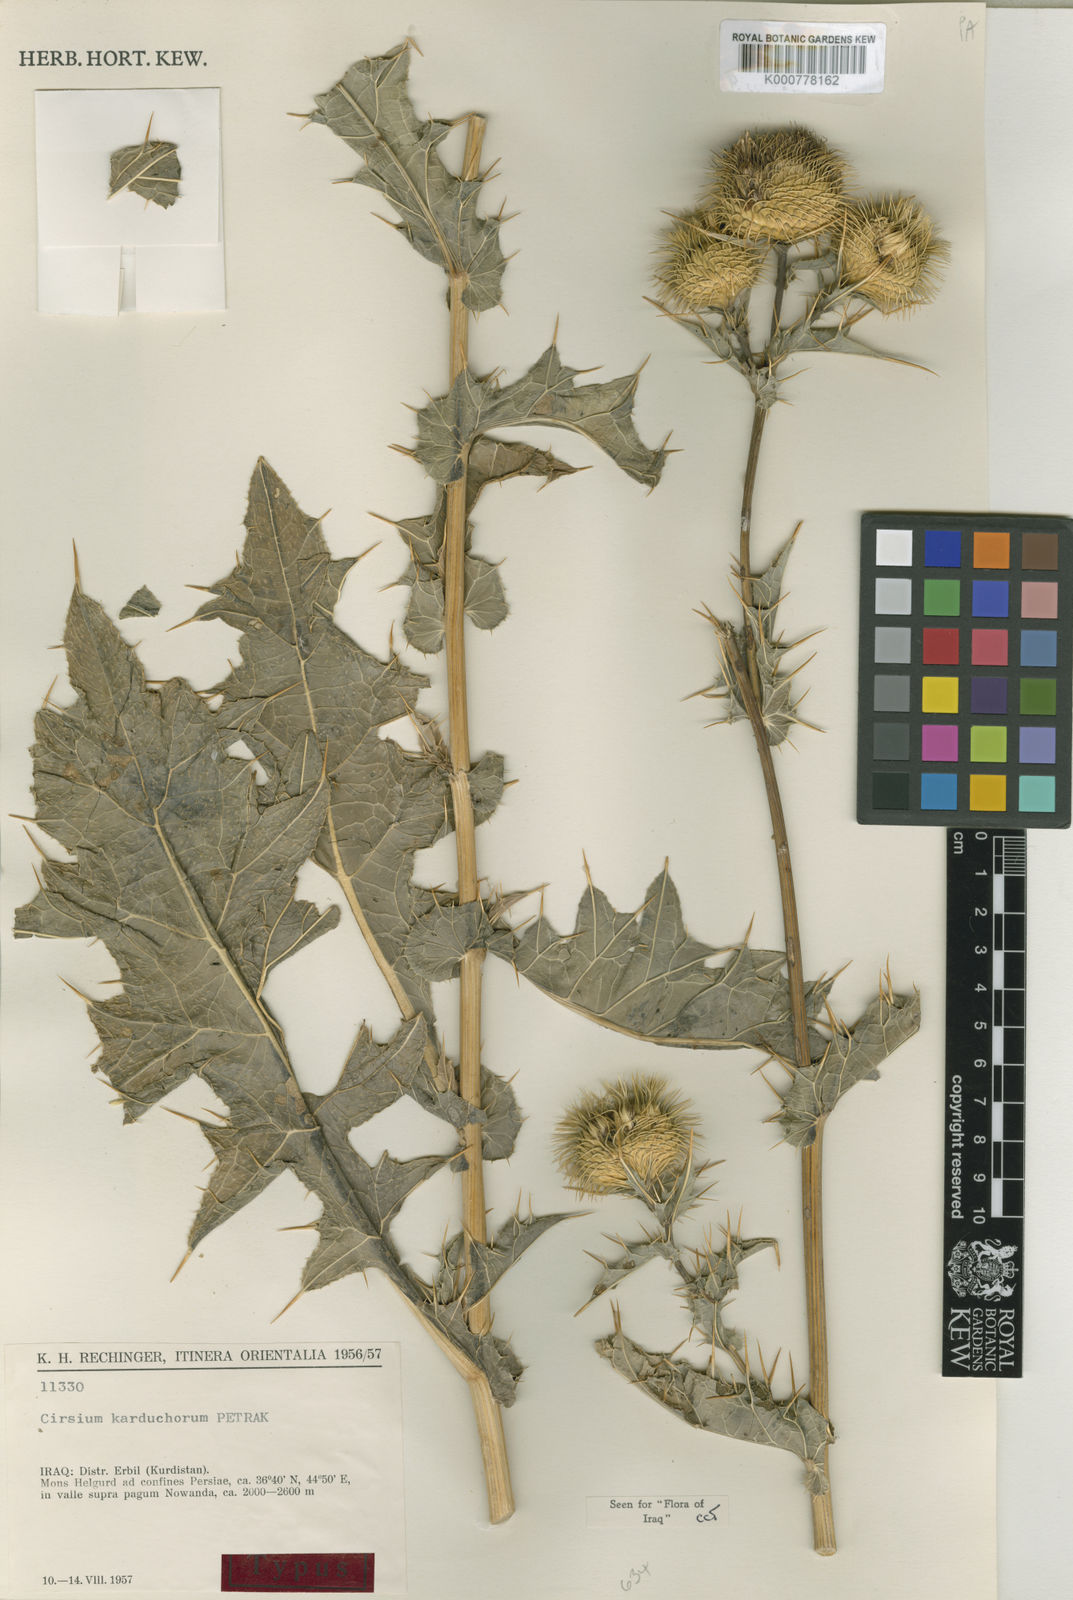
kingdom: Plantae
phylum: Tracheophyta
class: Magnoliopsida
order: Asterales
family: Asteraceae
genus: Lophiolepis
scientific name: Lophiolepis karduchorum
